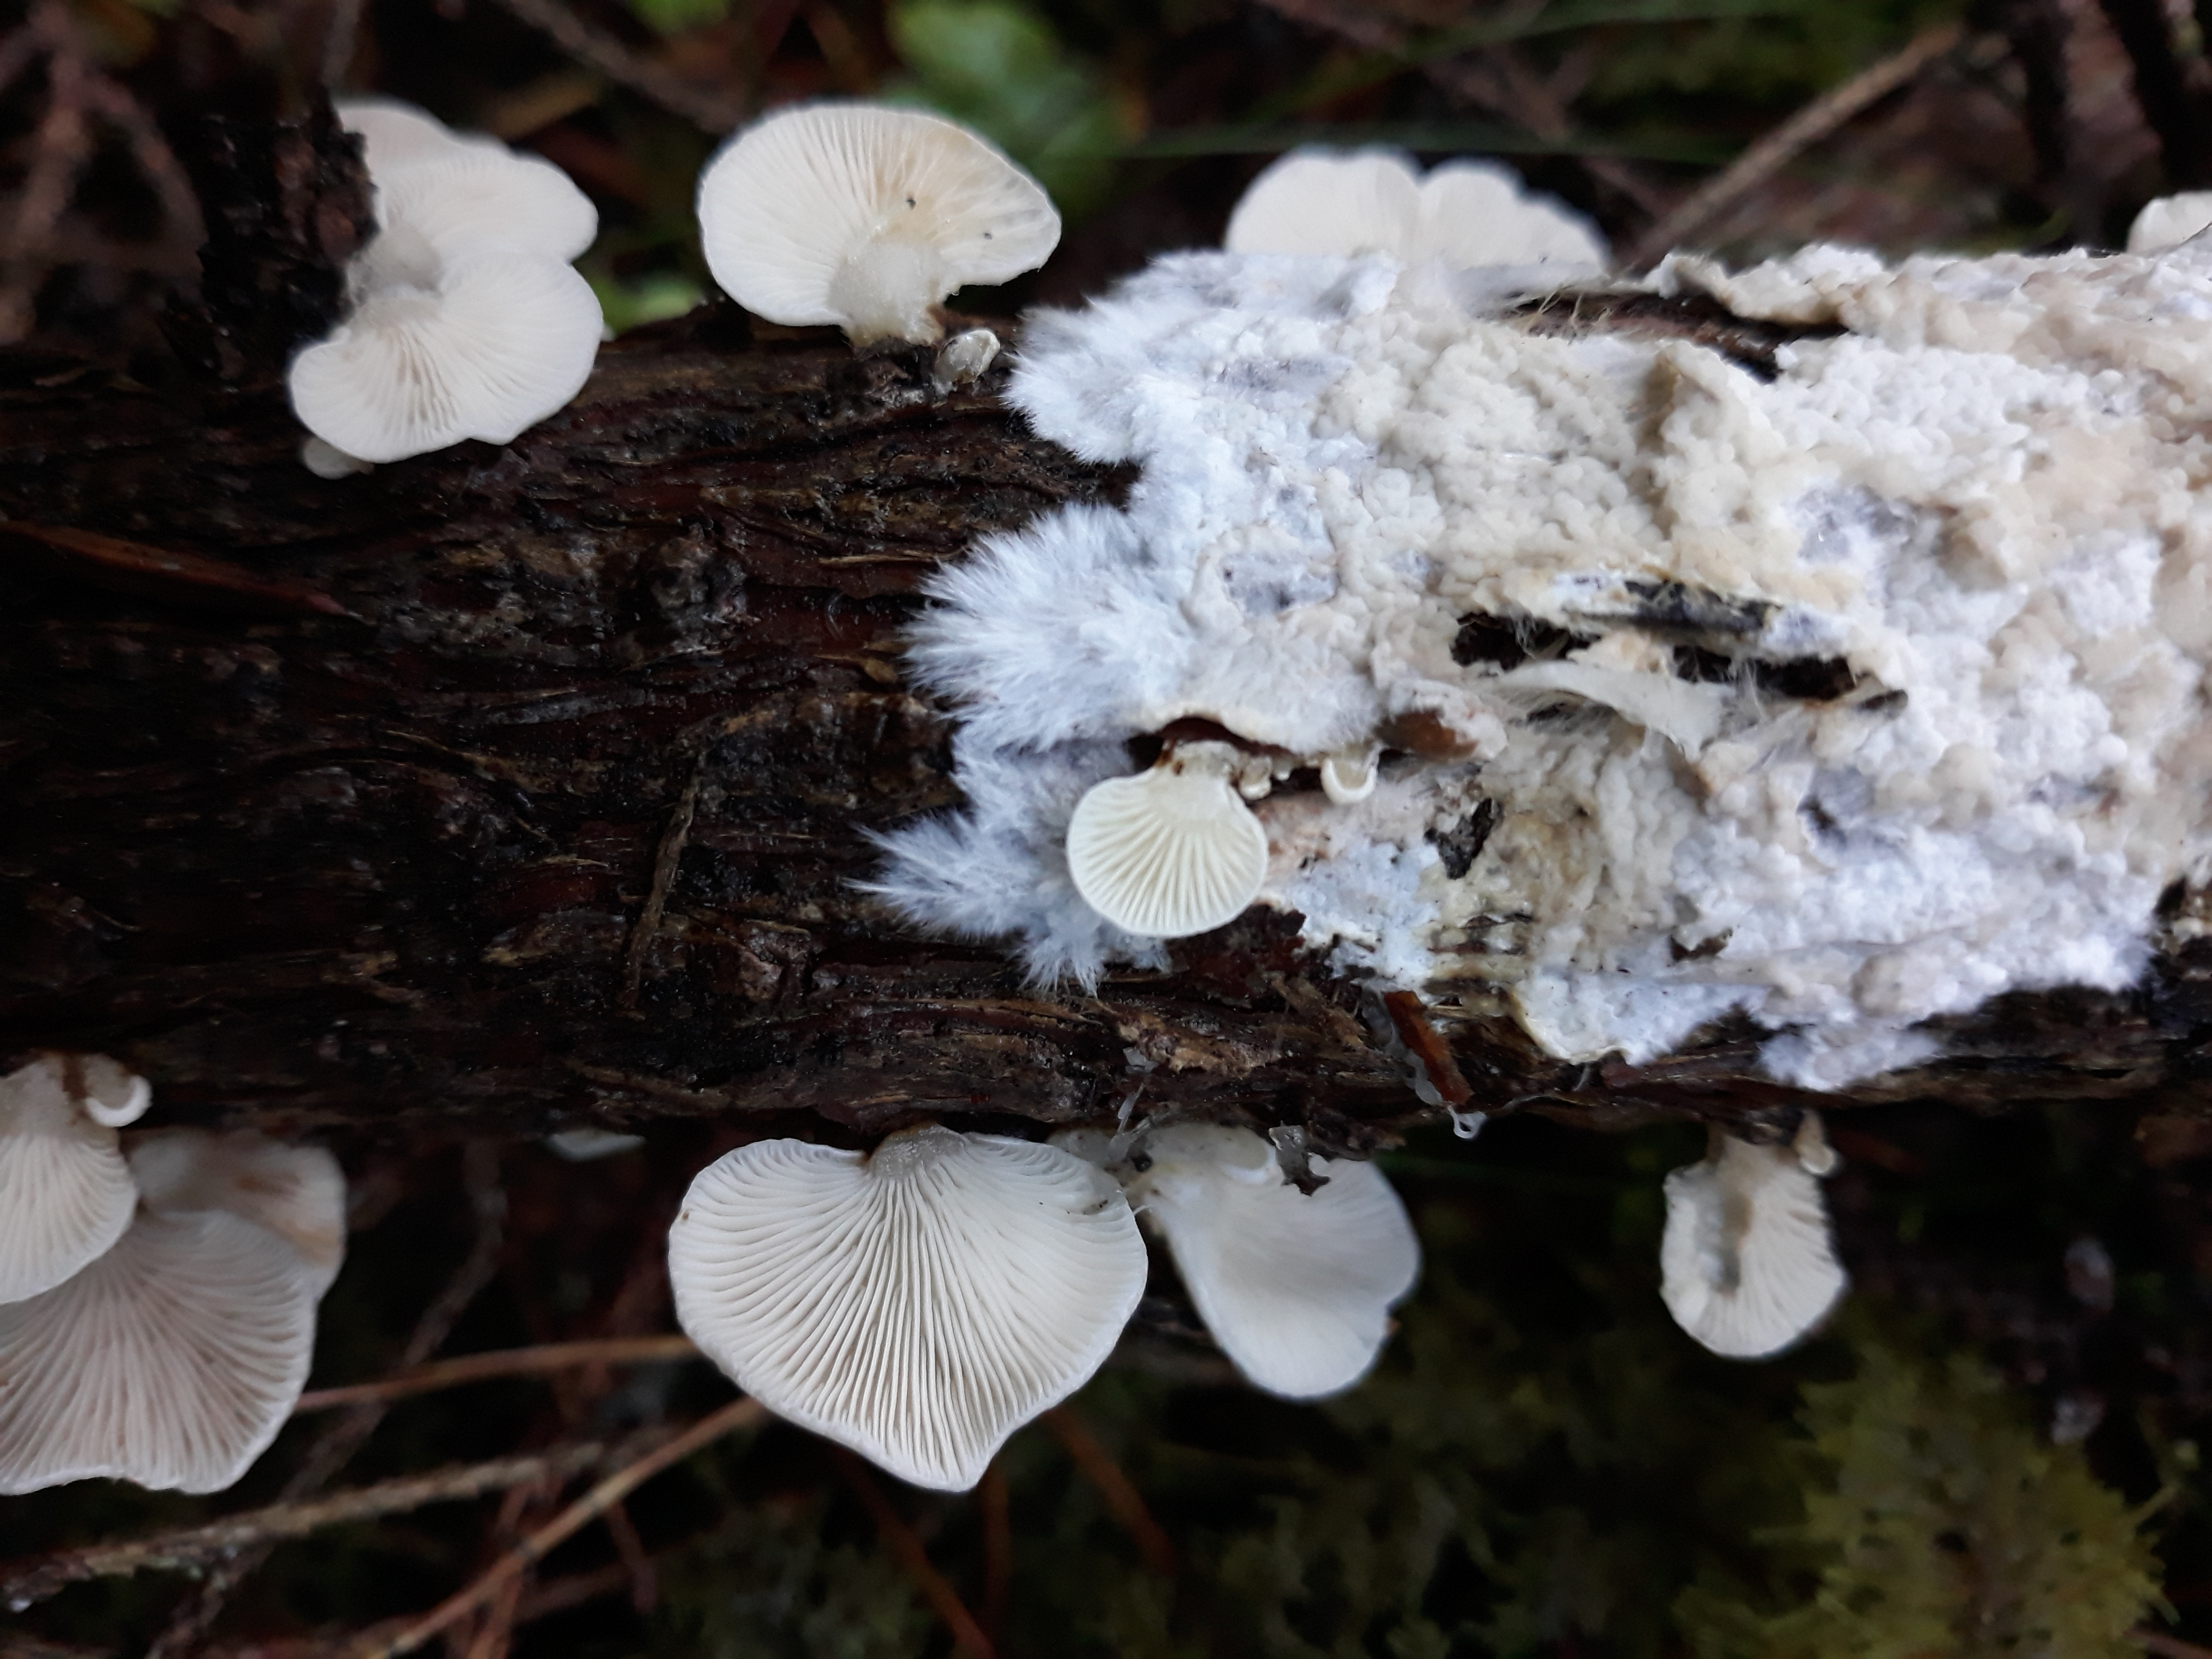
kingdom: Fungi
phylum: Basidiomycota
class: Agaricomycetes
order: Agaricales
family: Mycenaceae
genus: Panellus
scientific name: Panellus mitis
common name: Elastic oysterling
